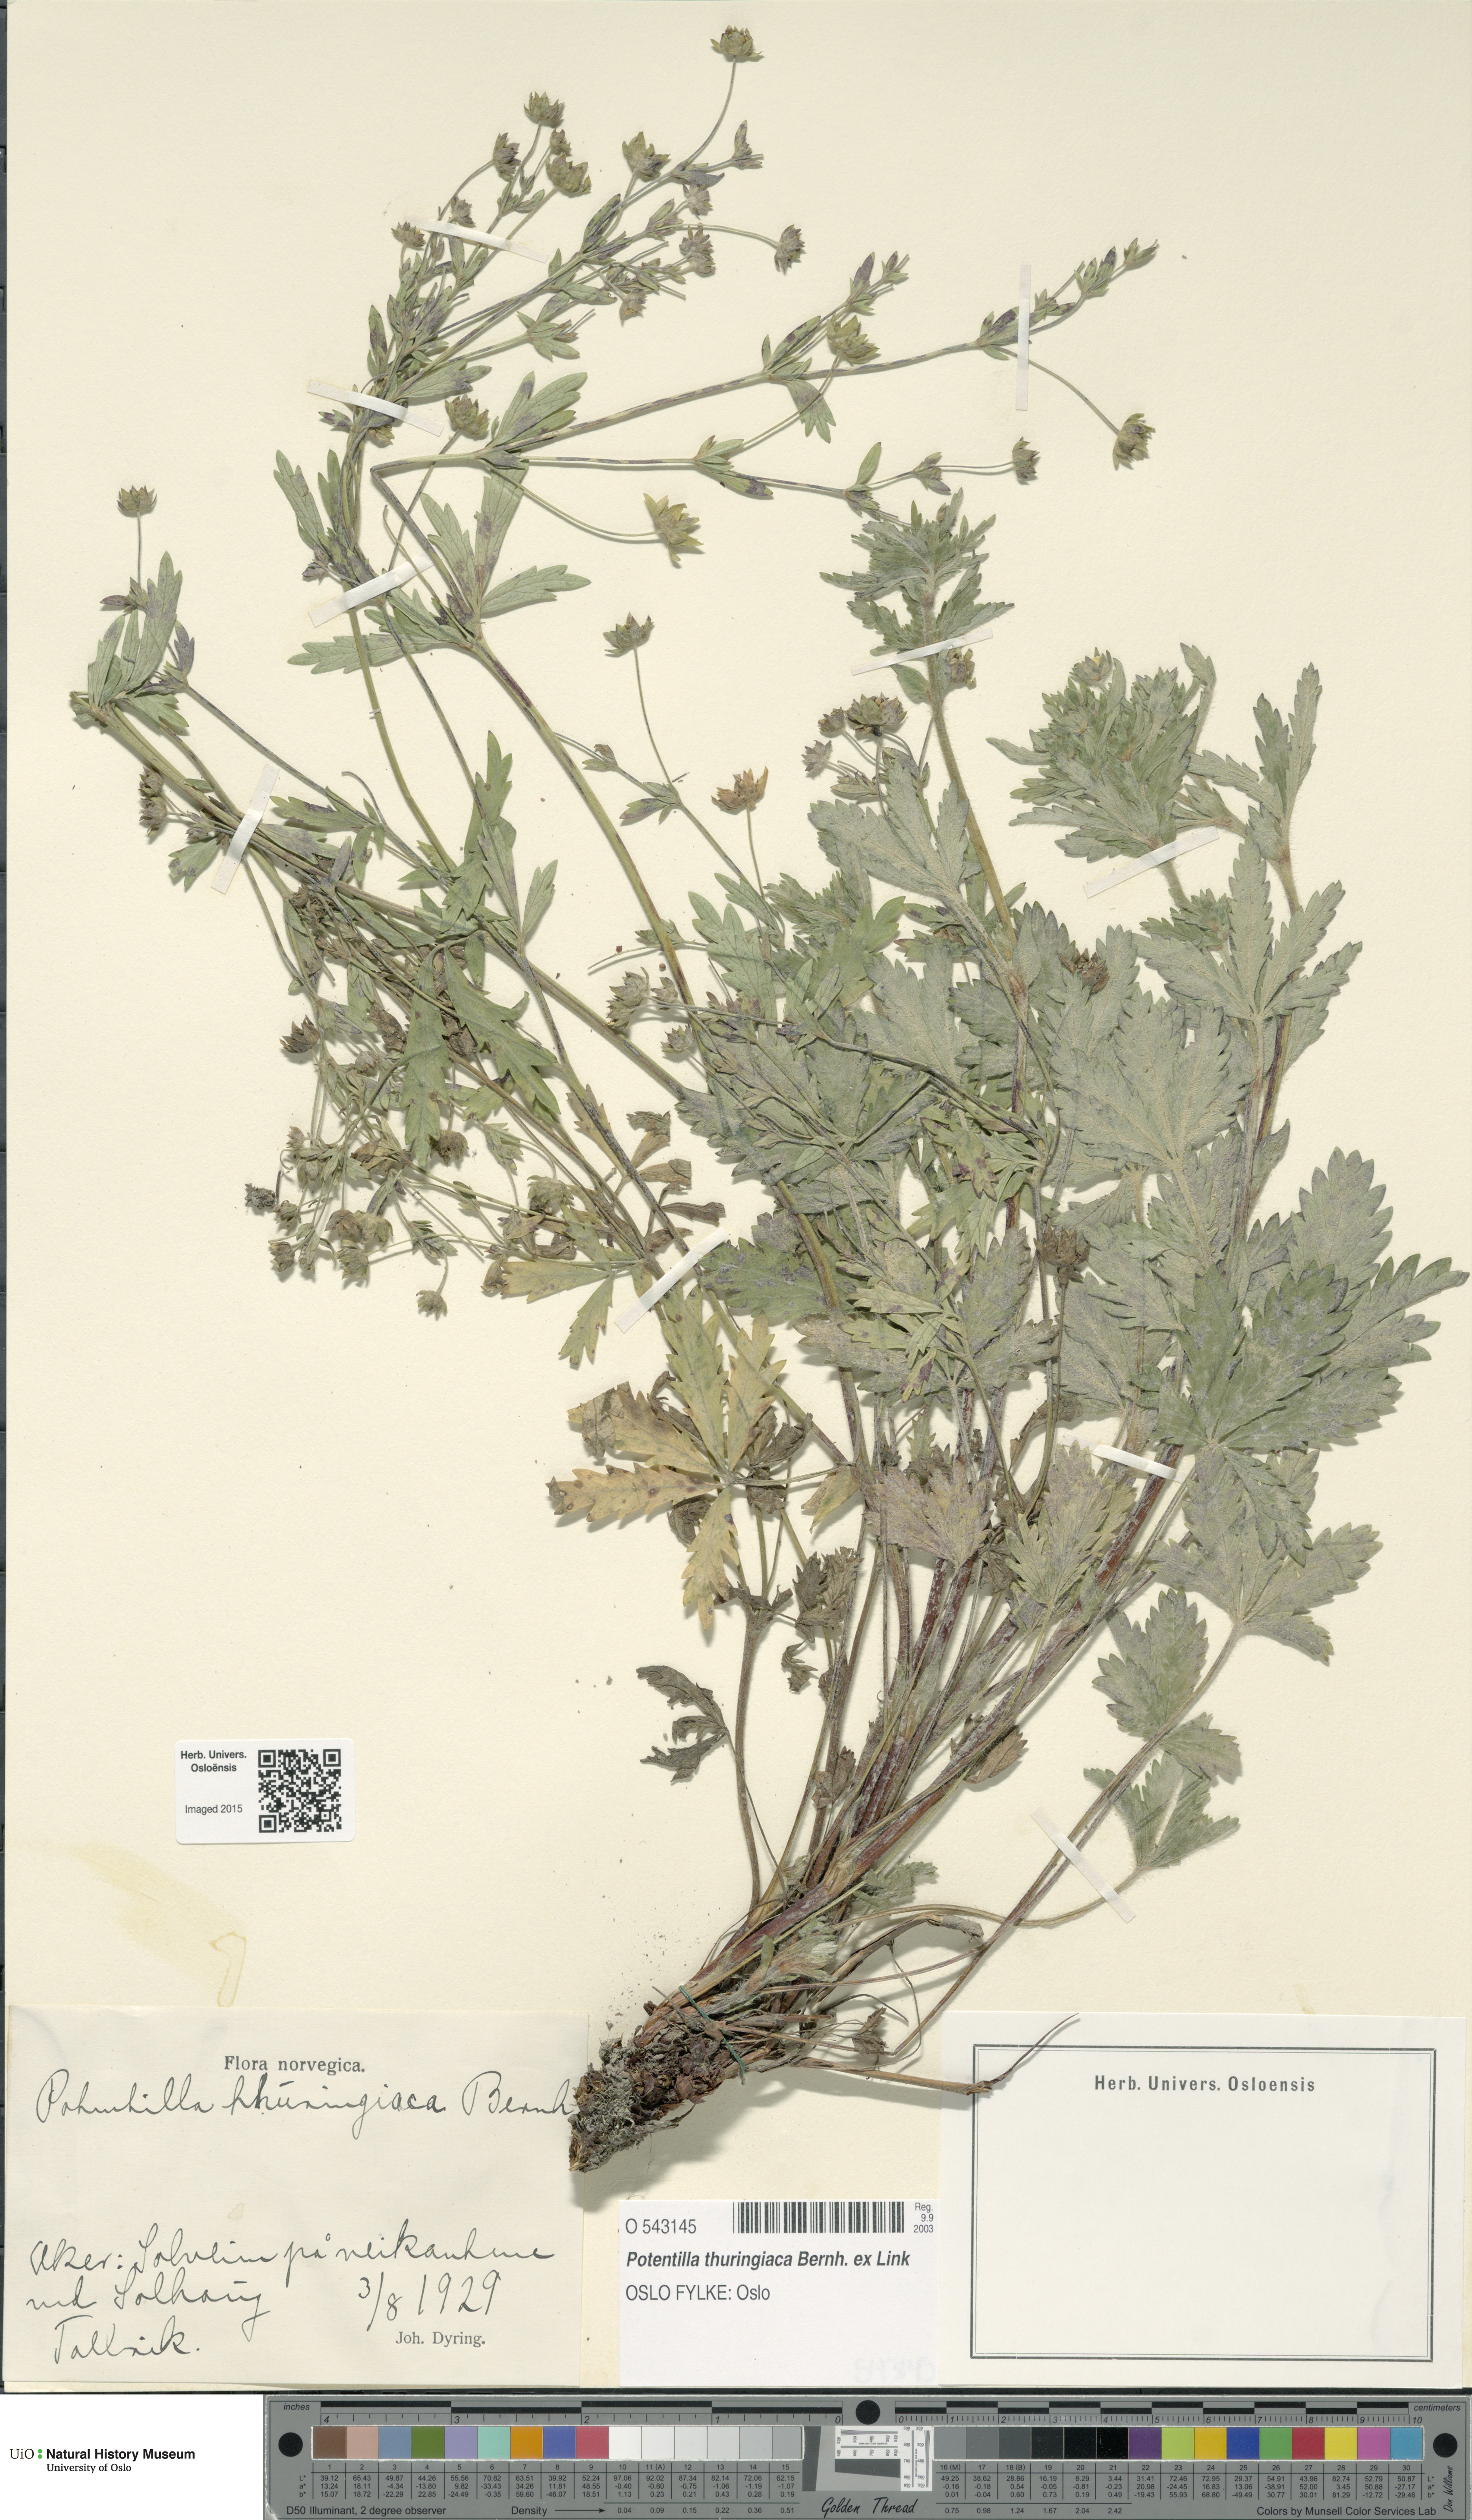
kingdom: Plantae
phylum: Tracheophyta
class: Magnoliopsida
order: Rosales
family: Rosaceae
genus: Potentilla
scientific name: Potentilla thuringiaca
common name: European cinquefoil
